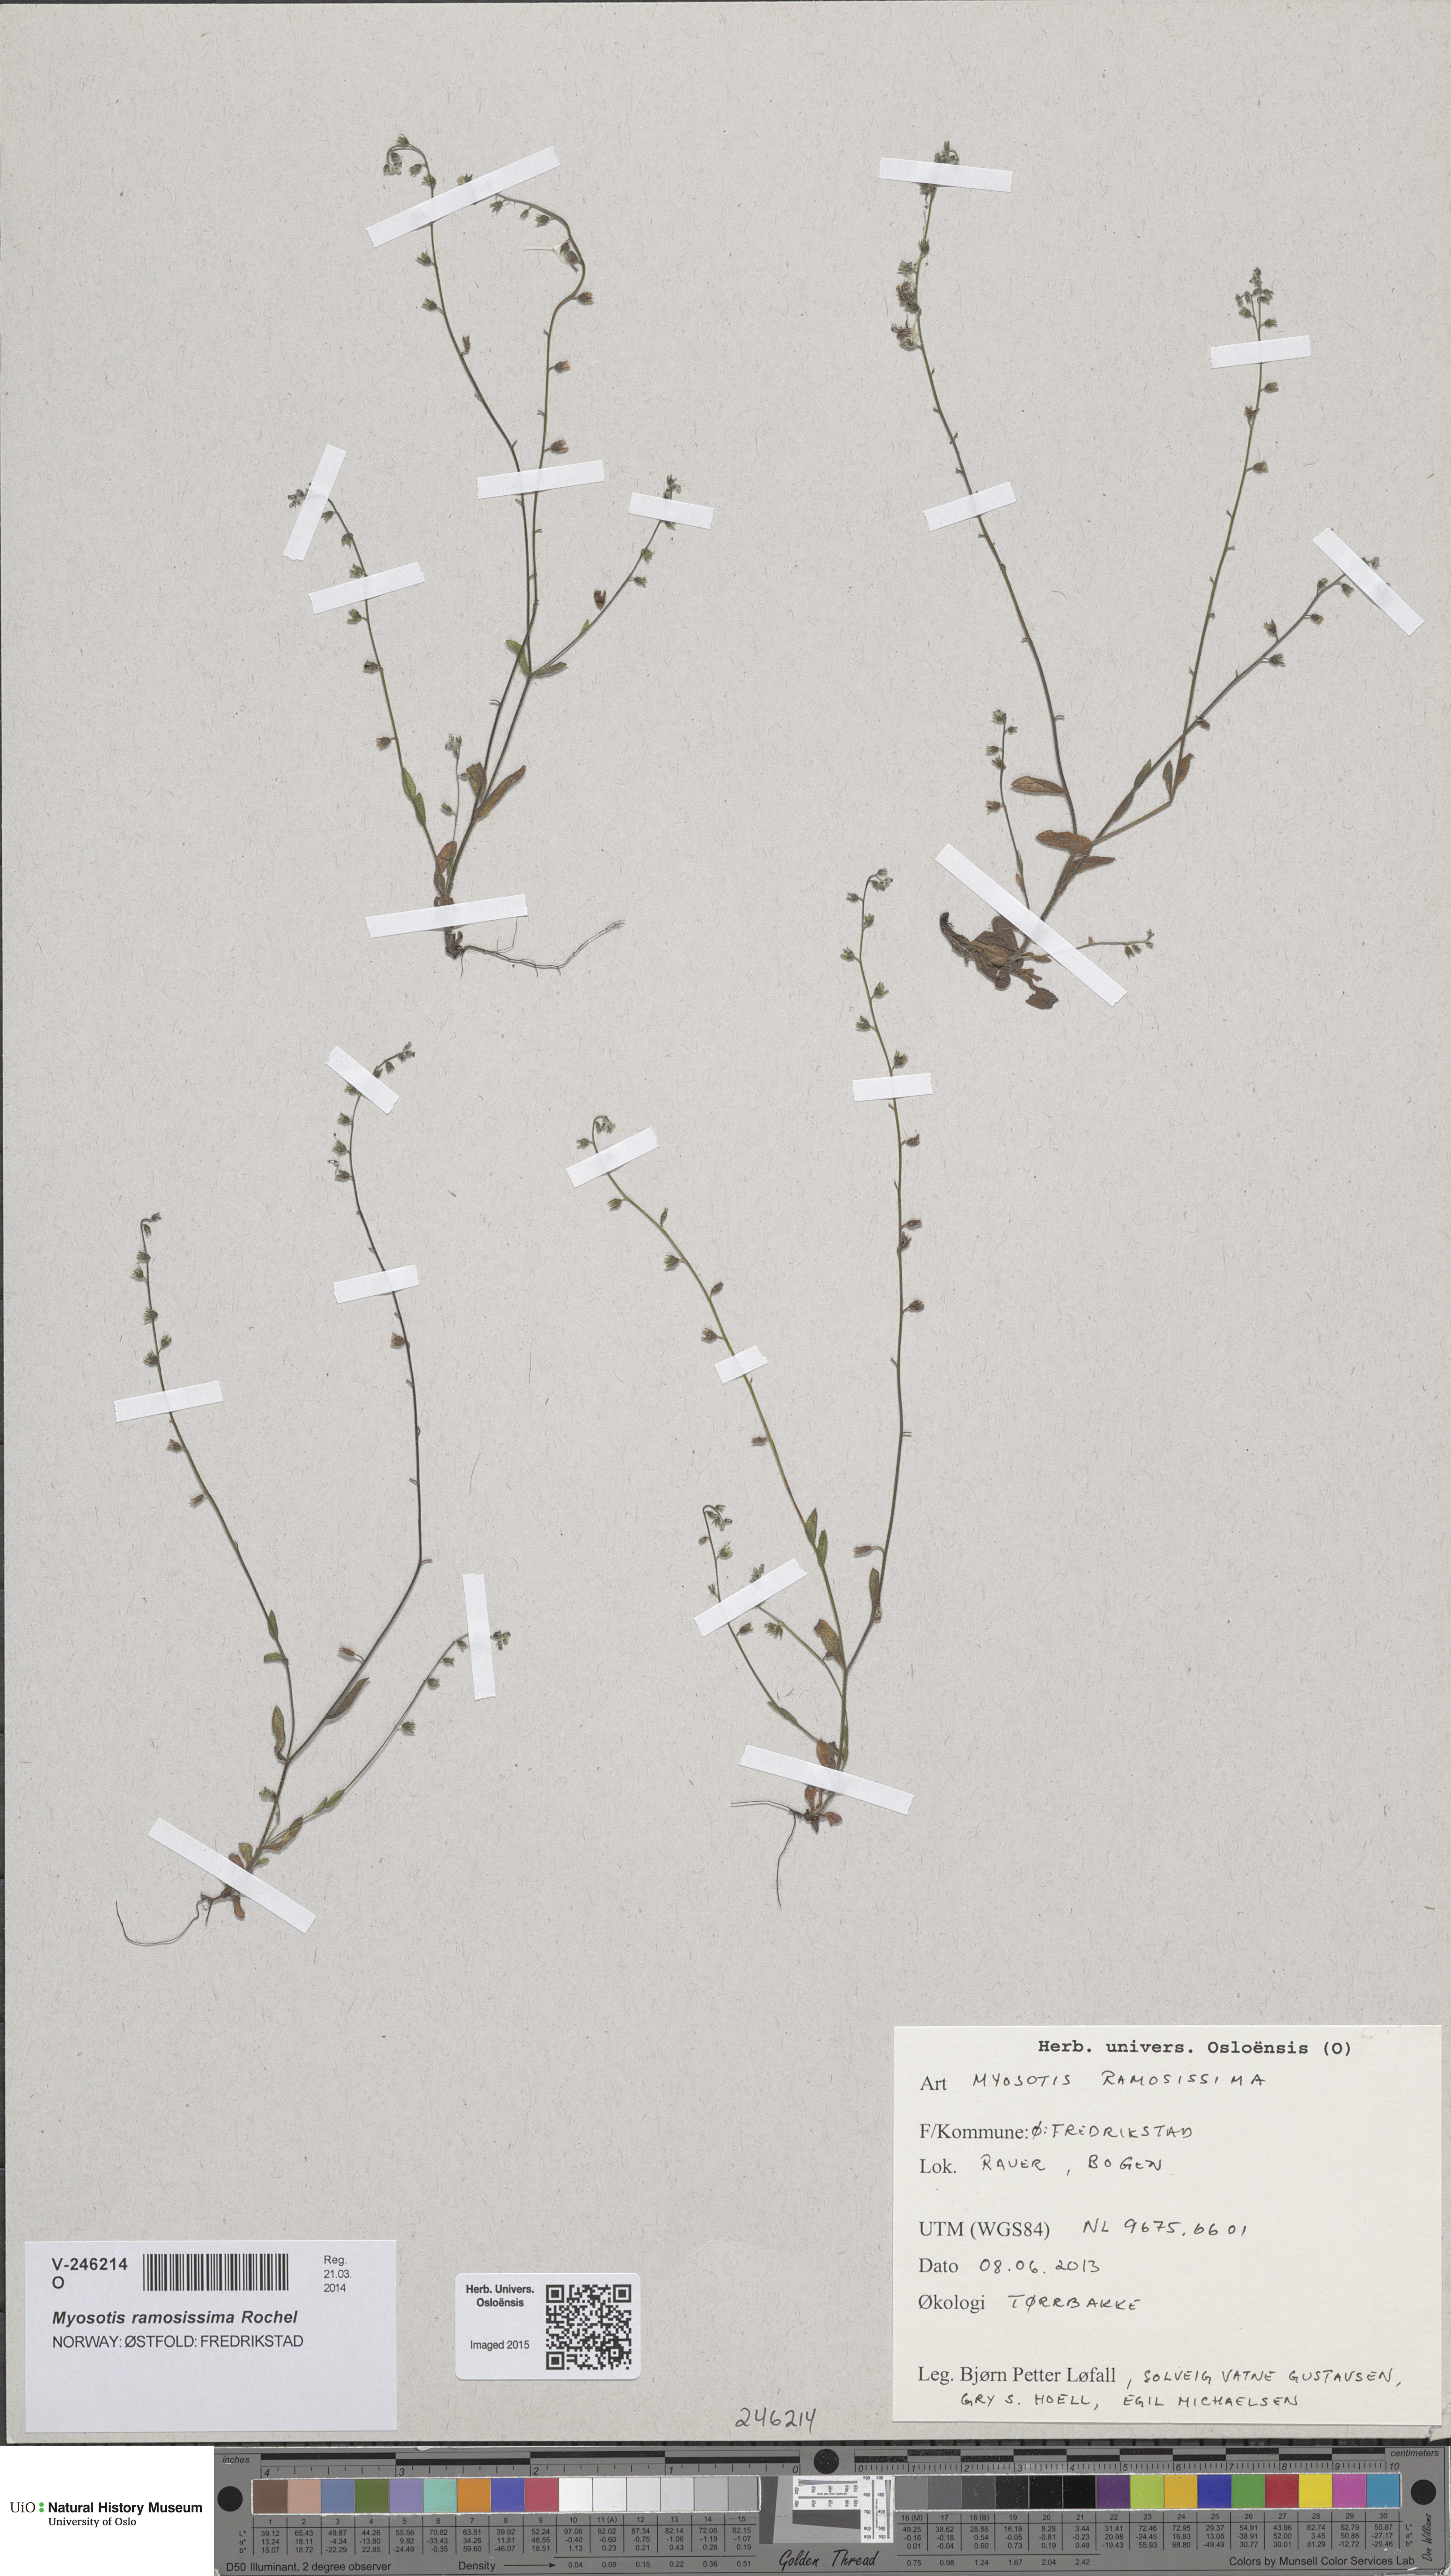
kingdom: Plantae
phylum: Tracheophyta
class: Magnoliopsida
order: Boraginales
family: Boraginaceae
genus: Myosotis
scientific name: Myosotis ramosissima
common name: Early forget-me-not
